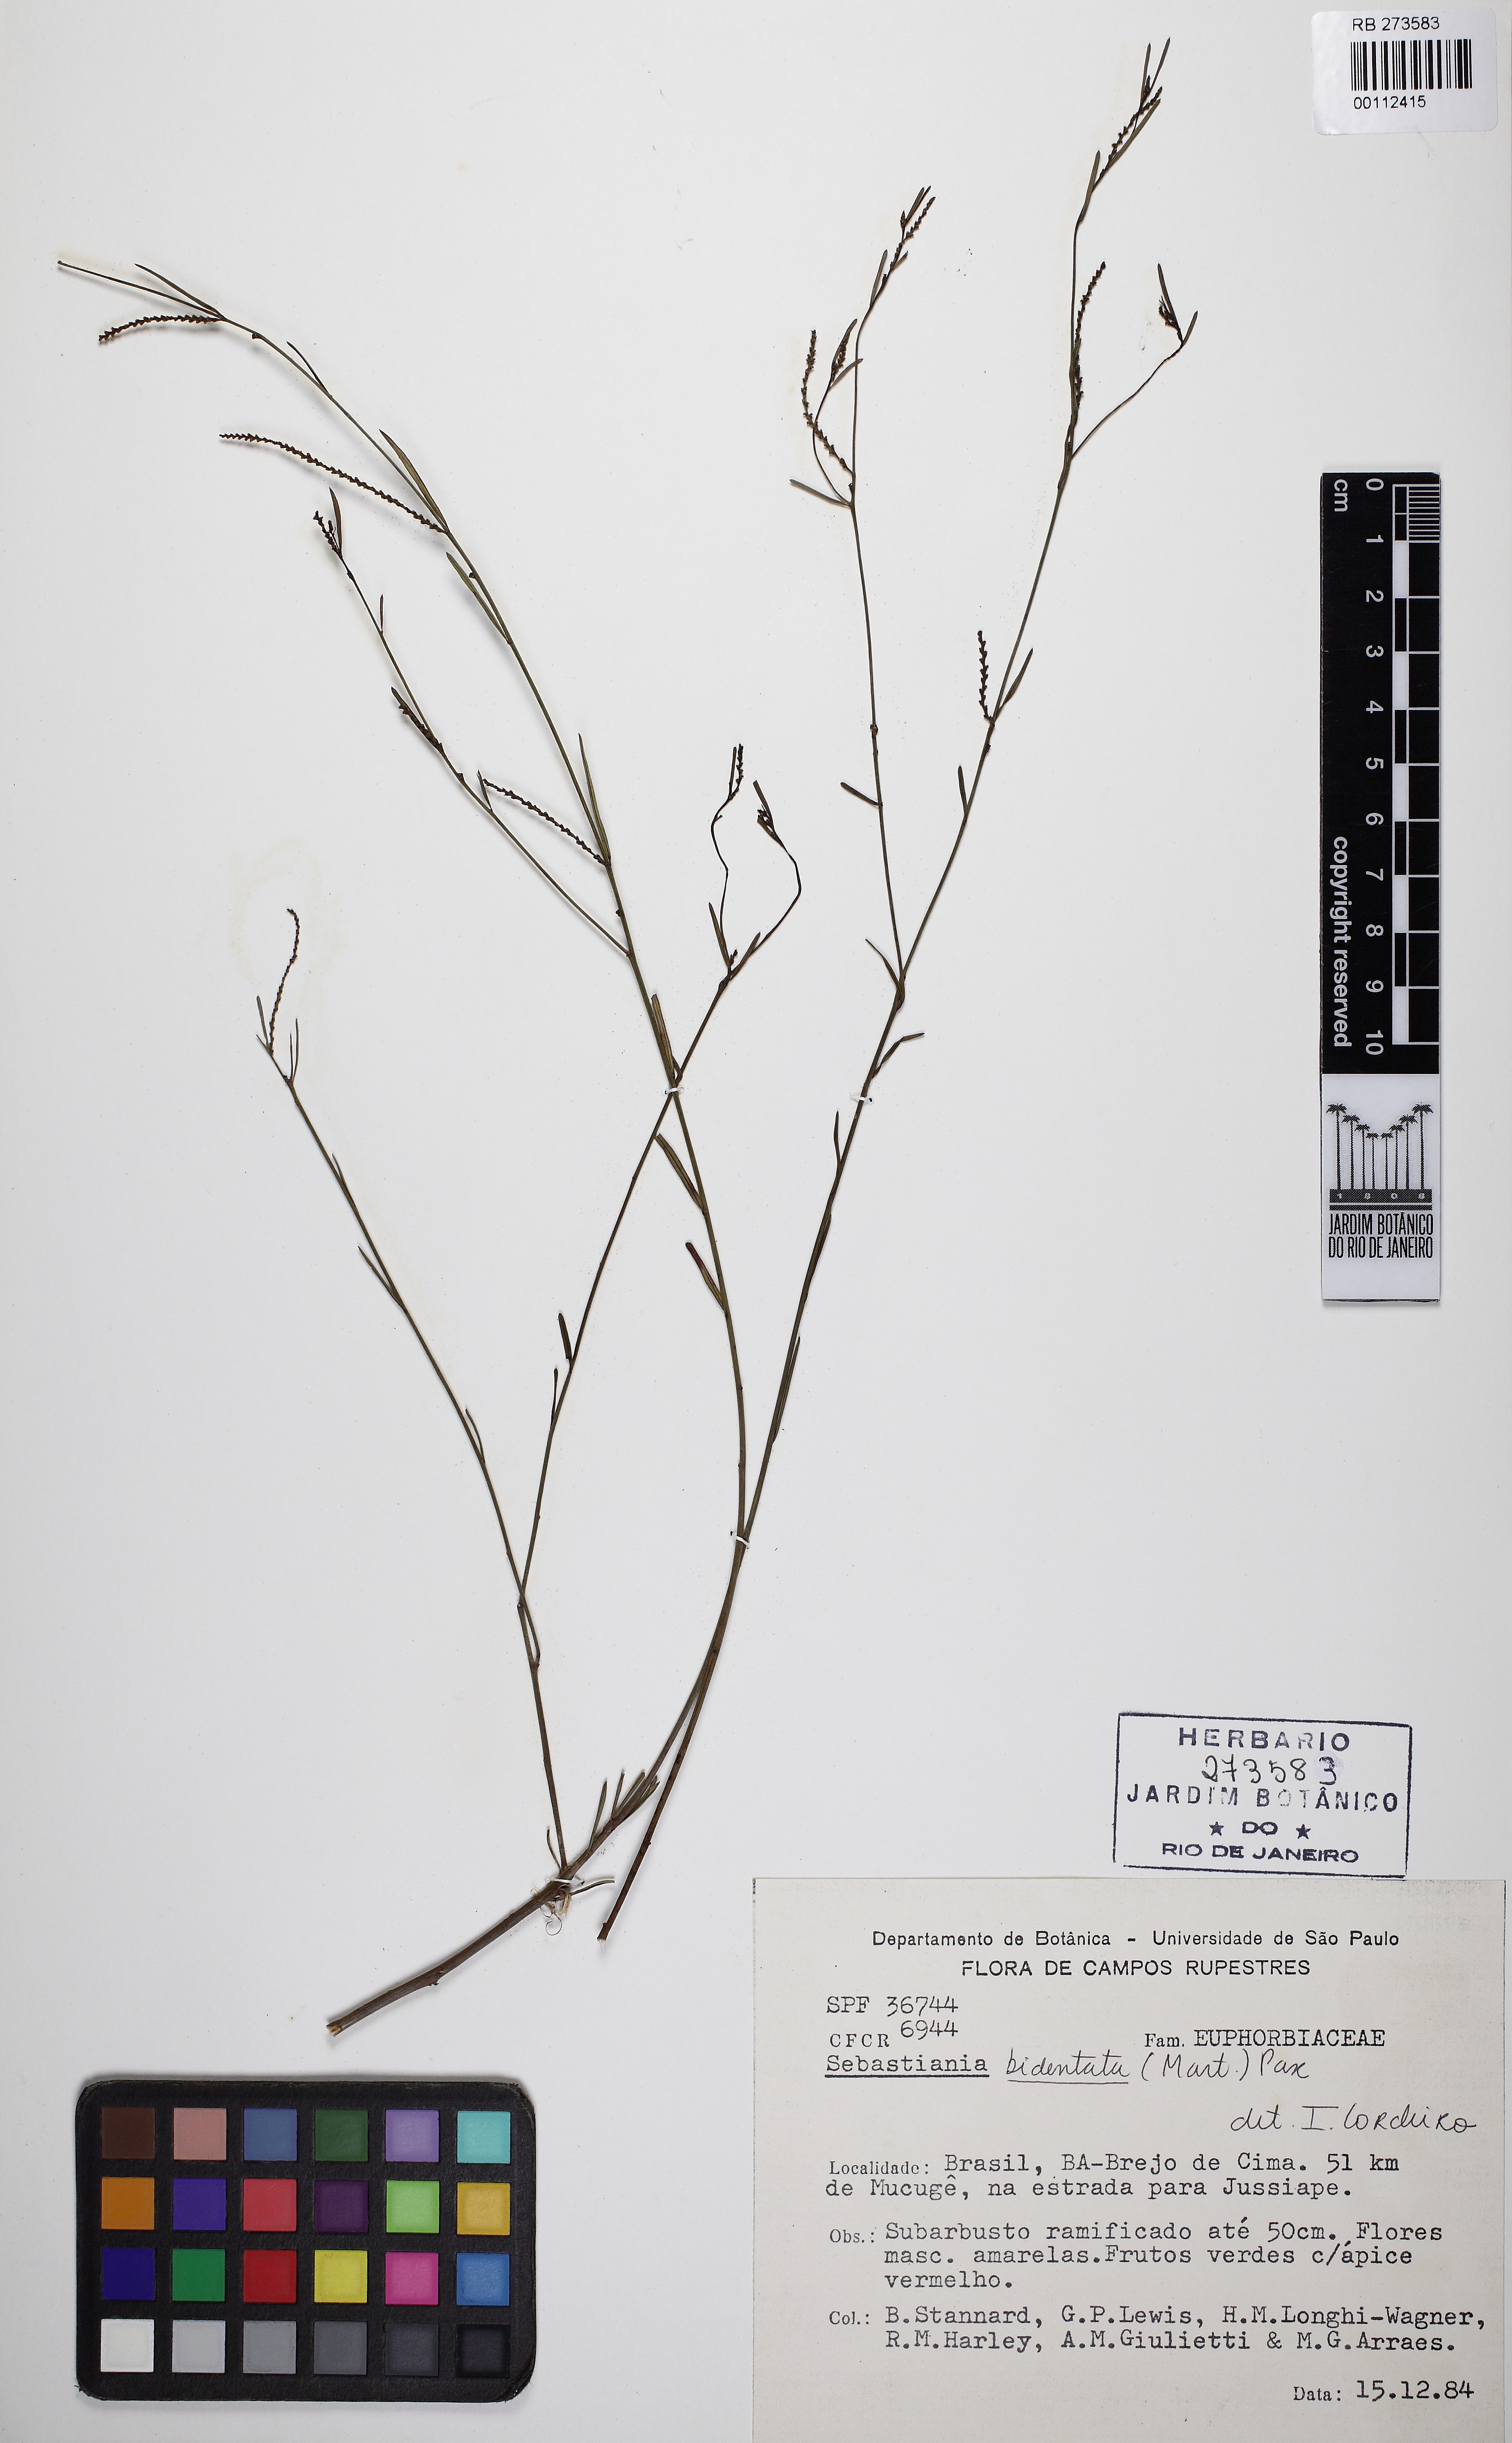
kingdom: Plantae
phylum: Tracheophyta
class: Magnoliopsida
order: Malpighiales
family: Euphorbiaceae
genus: Microstachys
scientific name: Microstachys bidentata
